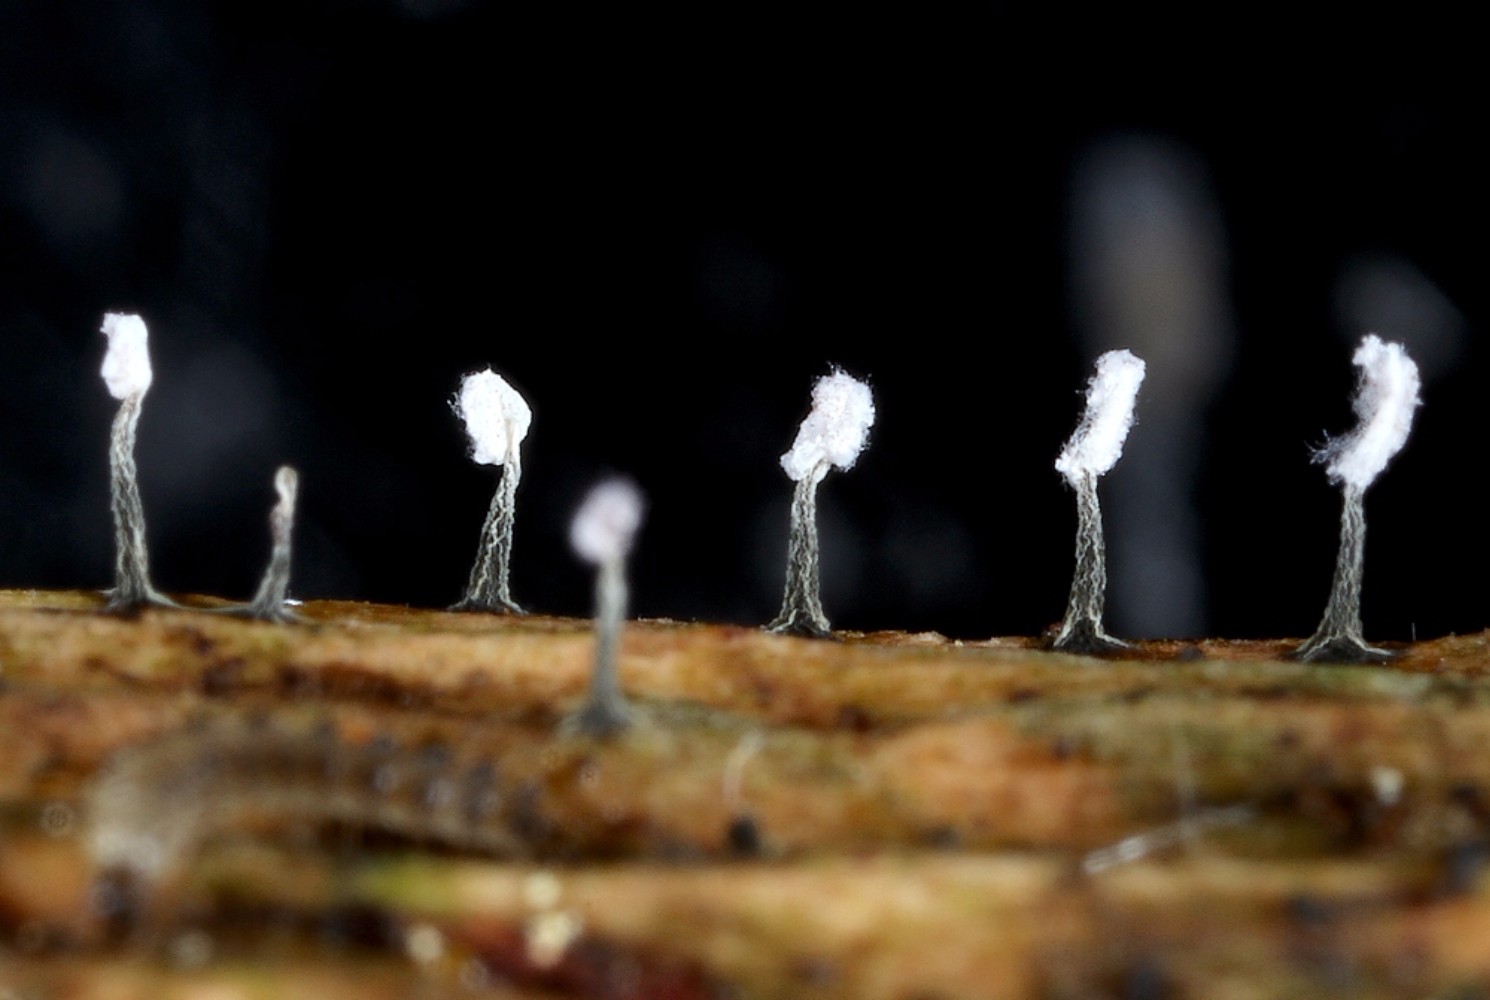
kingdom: Protozoa
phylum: Mycetozoa
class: Myxomycetes
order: Physarales
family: Physaraceae
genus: Physarum
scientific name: Physarum album
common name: nikkende støvknop
